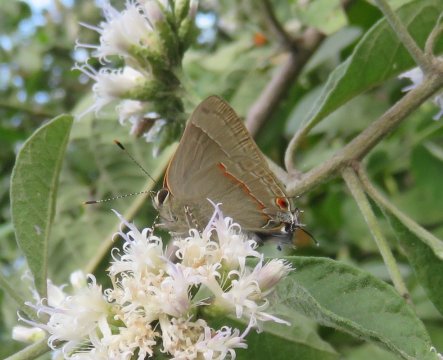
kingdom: Animalia
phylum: Arthropoda
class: Insecta
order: Lepidoptera
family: Lycaenidae
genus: Thecla
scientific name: Thecla syllis
